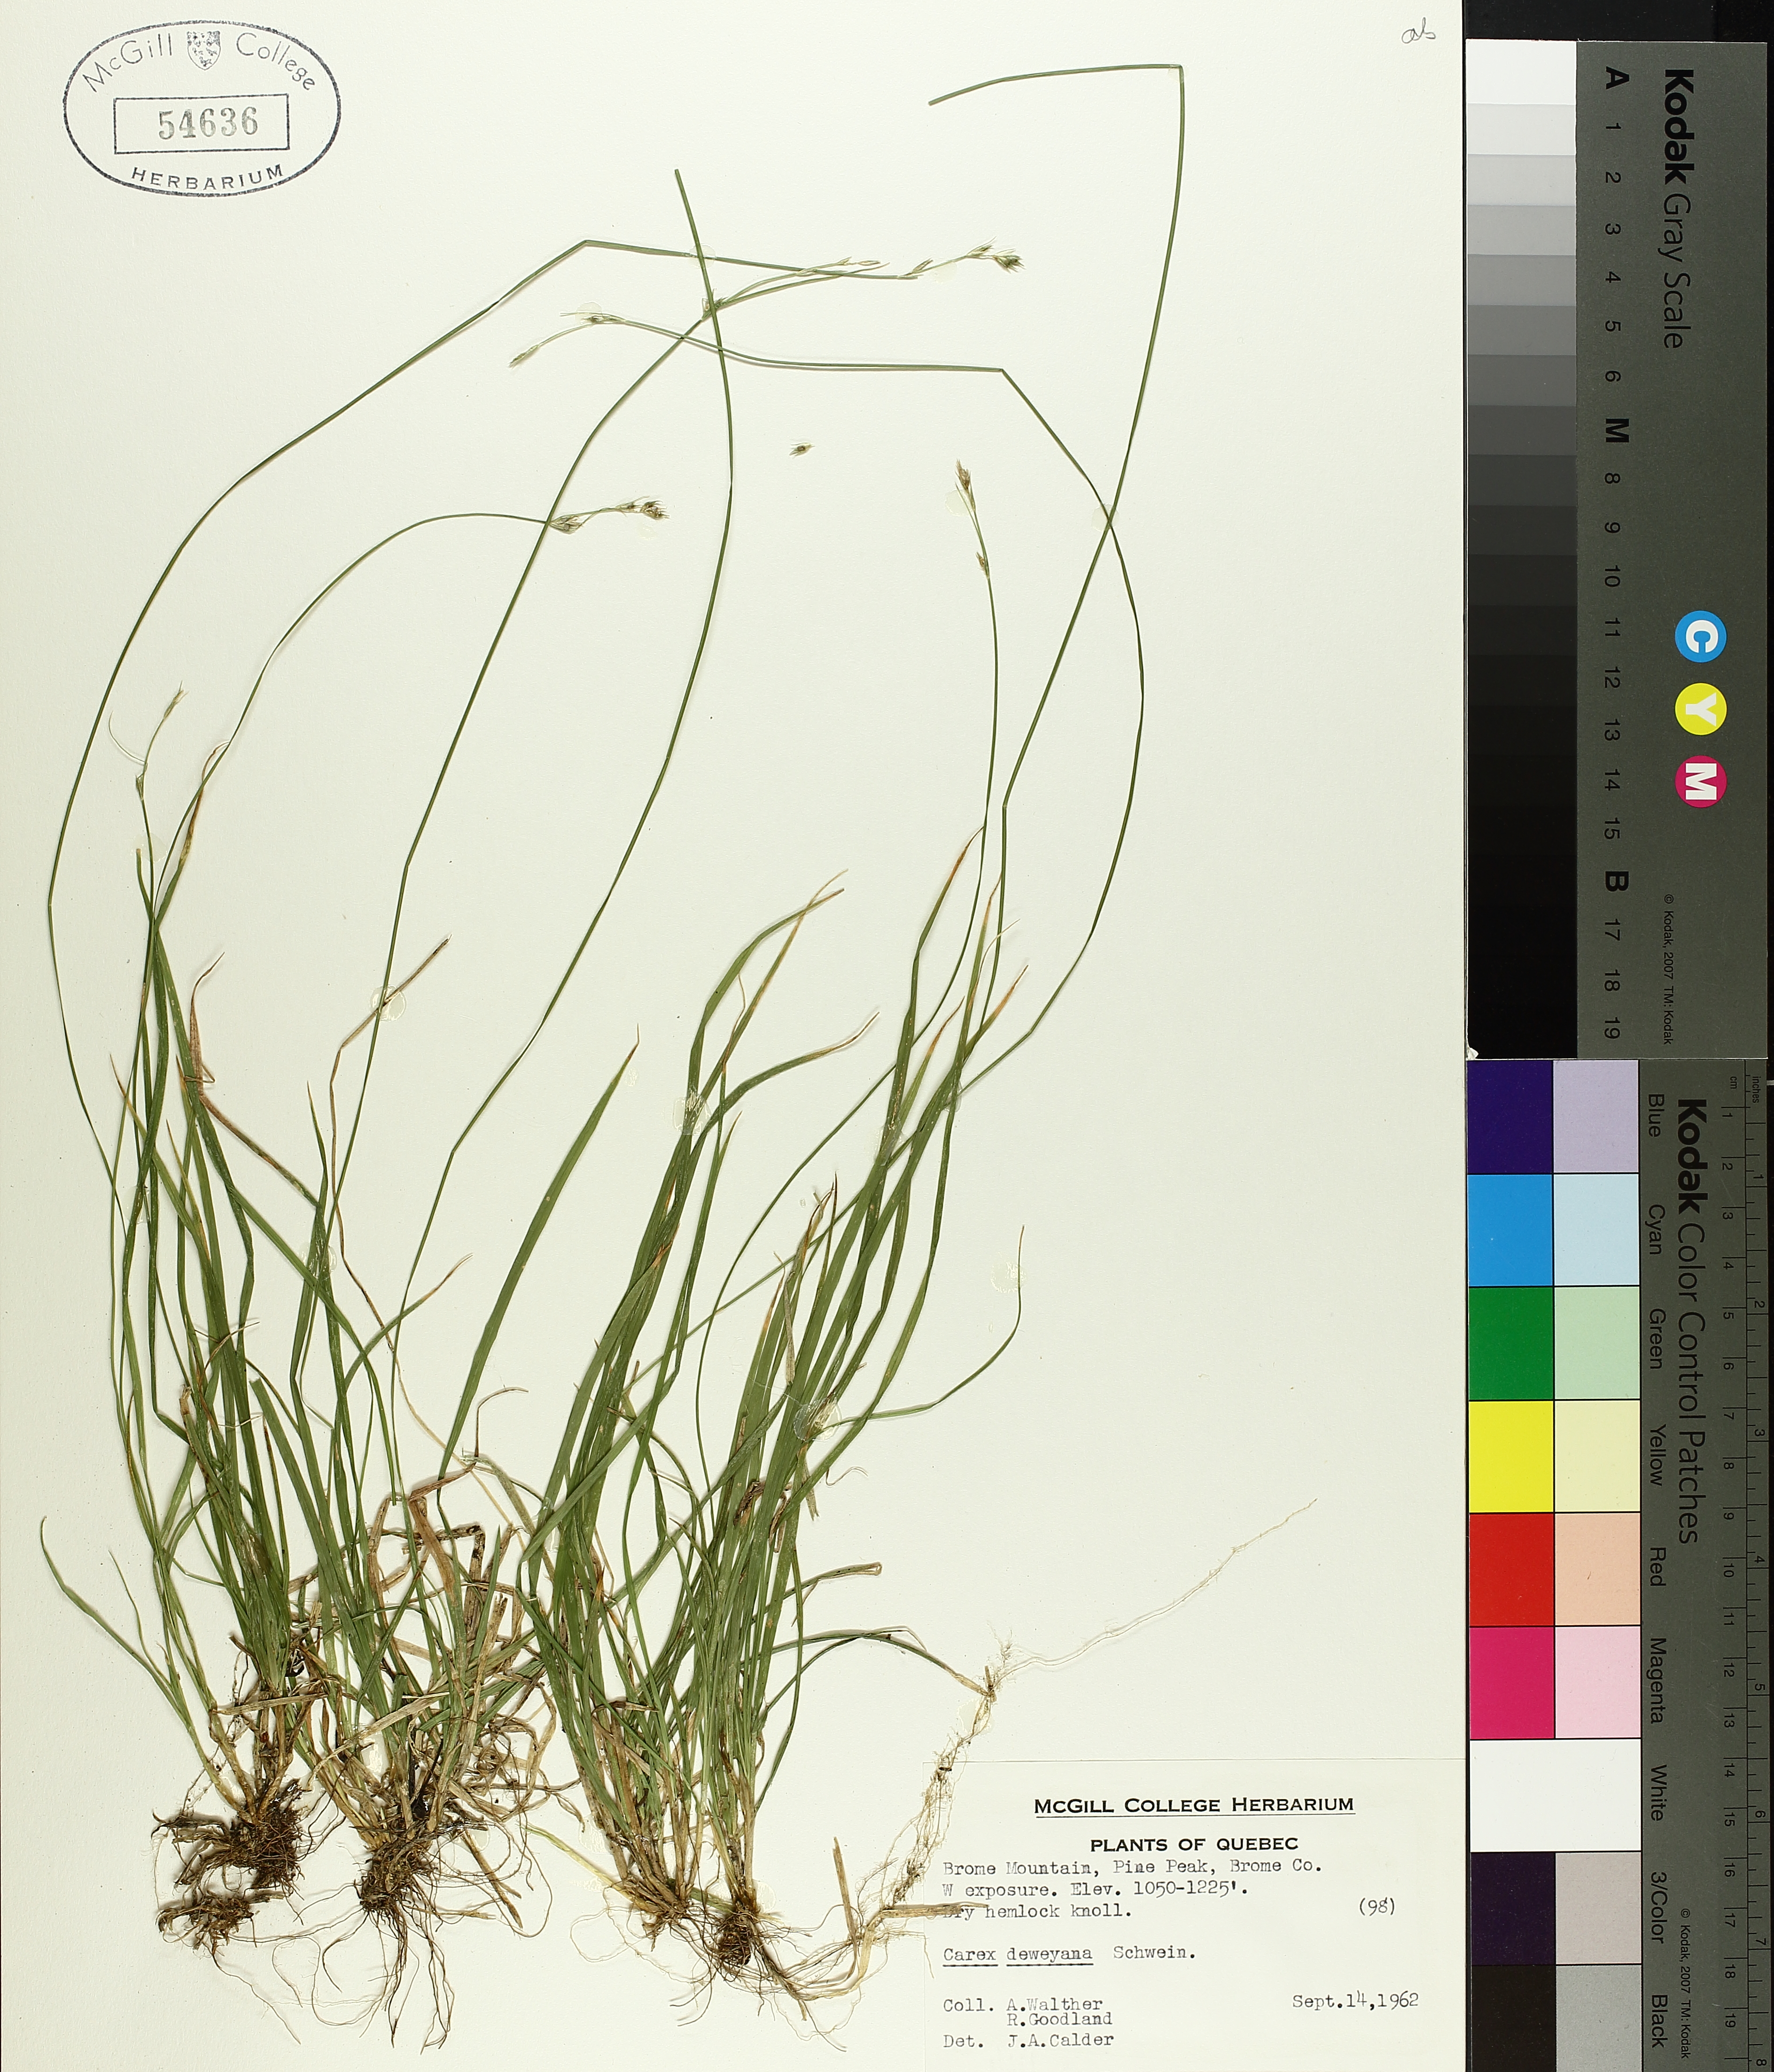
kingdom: Plantae
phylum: Tracheophyta
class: Liliopsida
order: Poales
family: Cyperaceae
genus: Carex
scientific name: Carex deweyana
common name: Dewey's sedge
